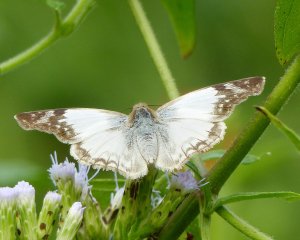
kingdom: Animalia
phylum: Arthropoda
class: Insecta
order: Lepidoptera
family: Hesperiidae
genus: Heliopetes
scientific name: Heliopetes laviana
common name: Laviana White-Skipper
